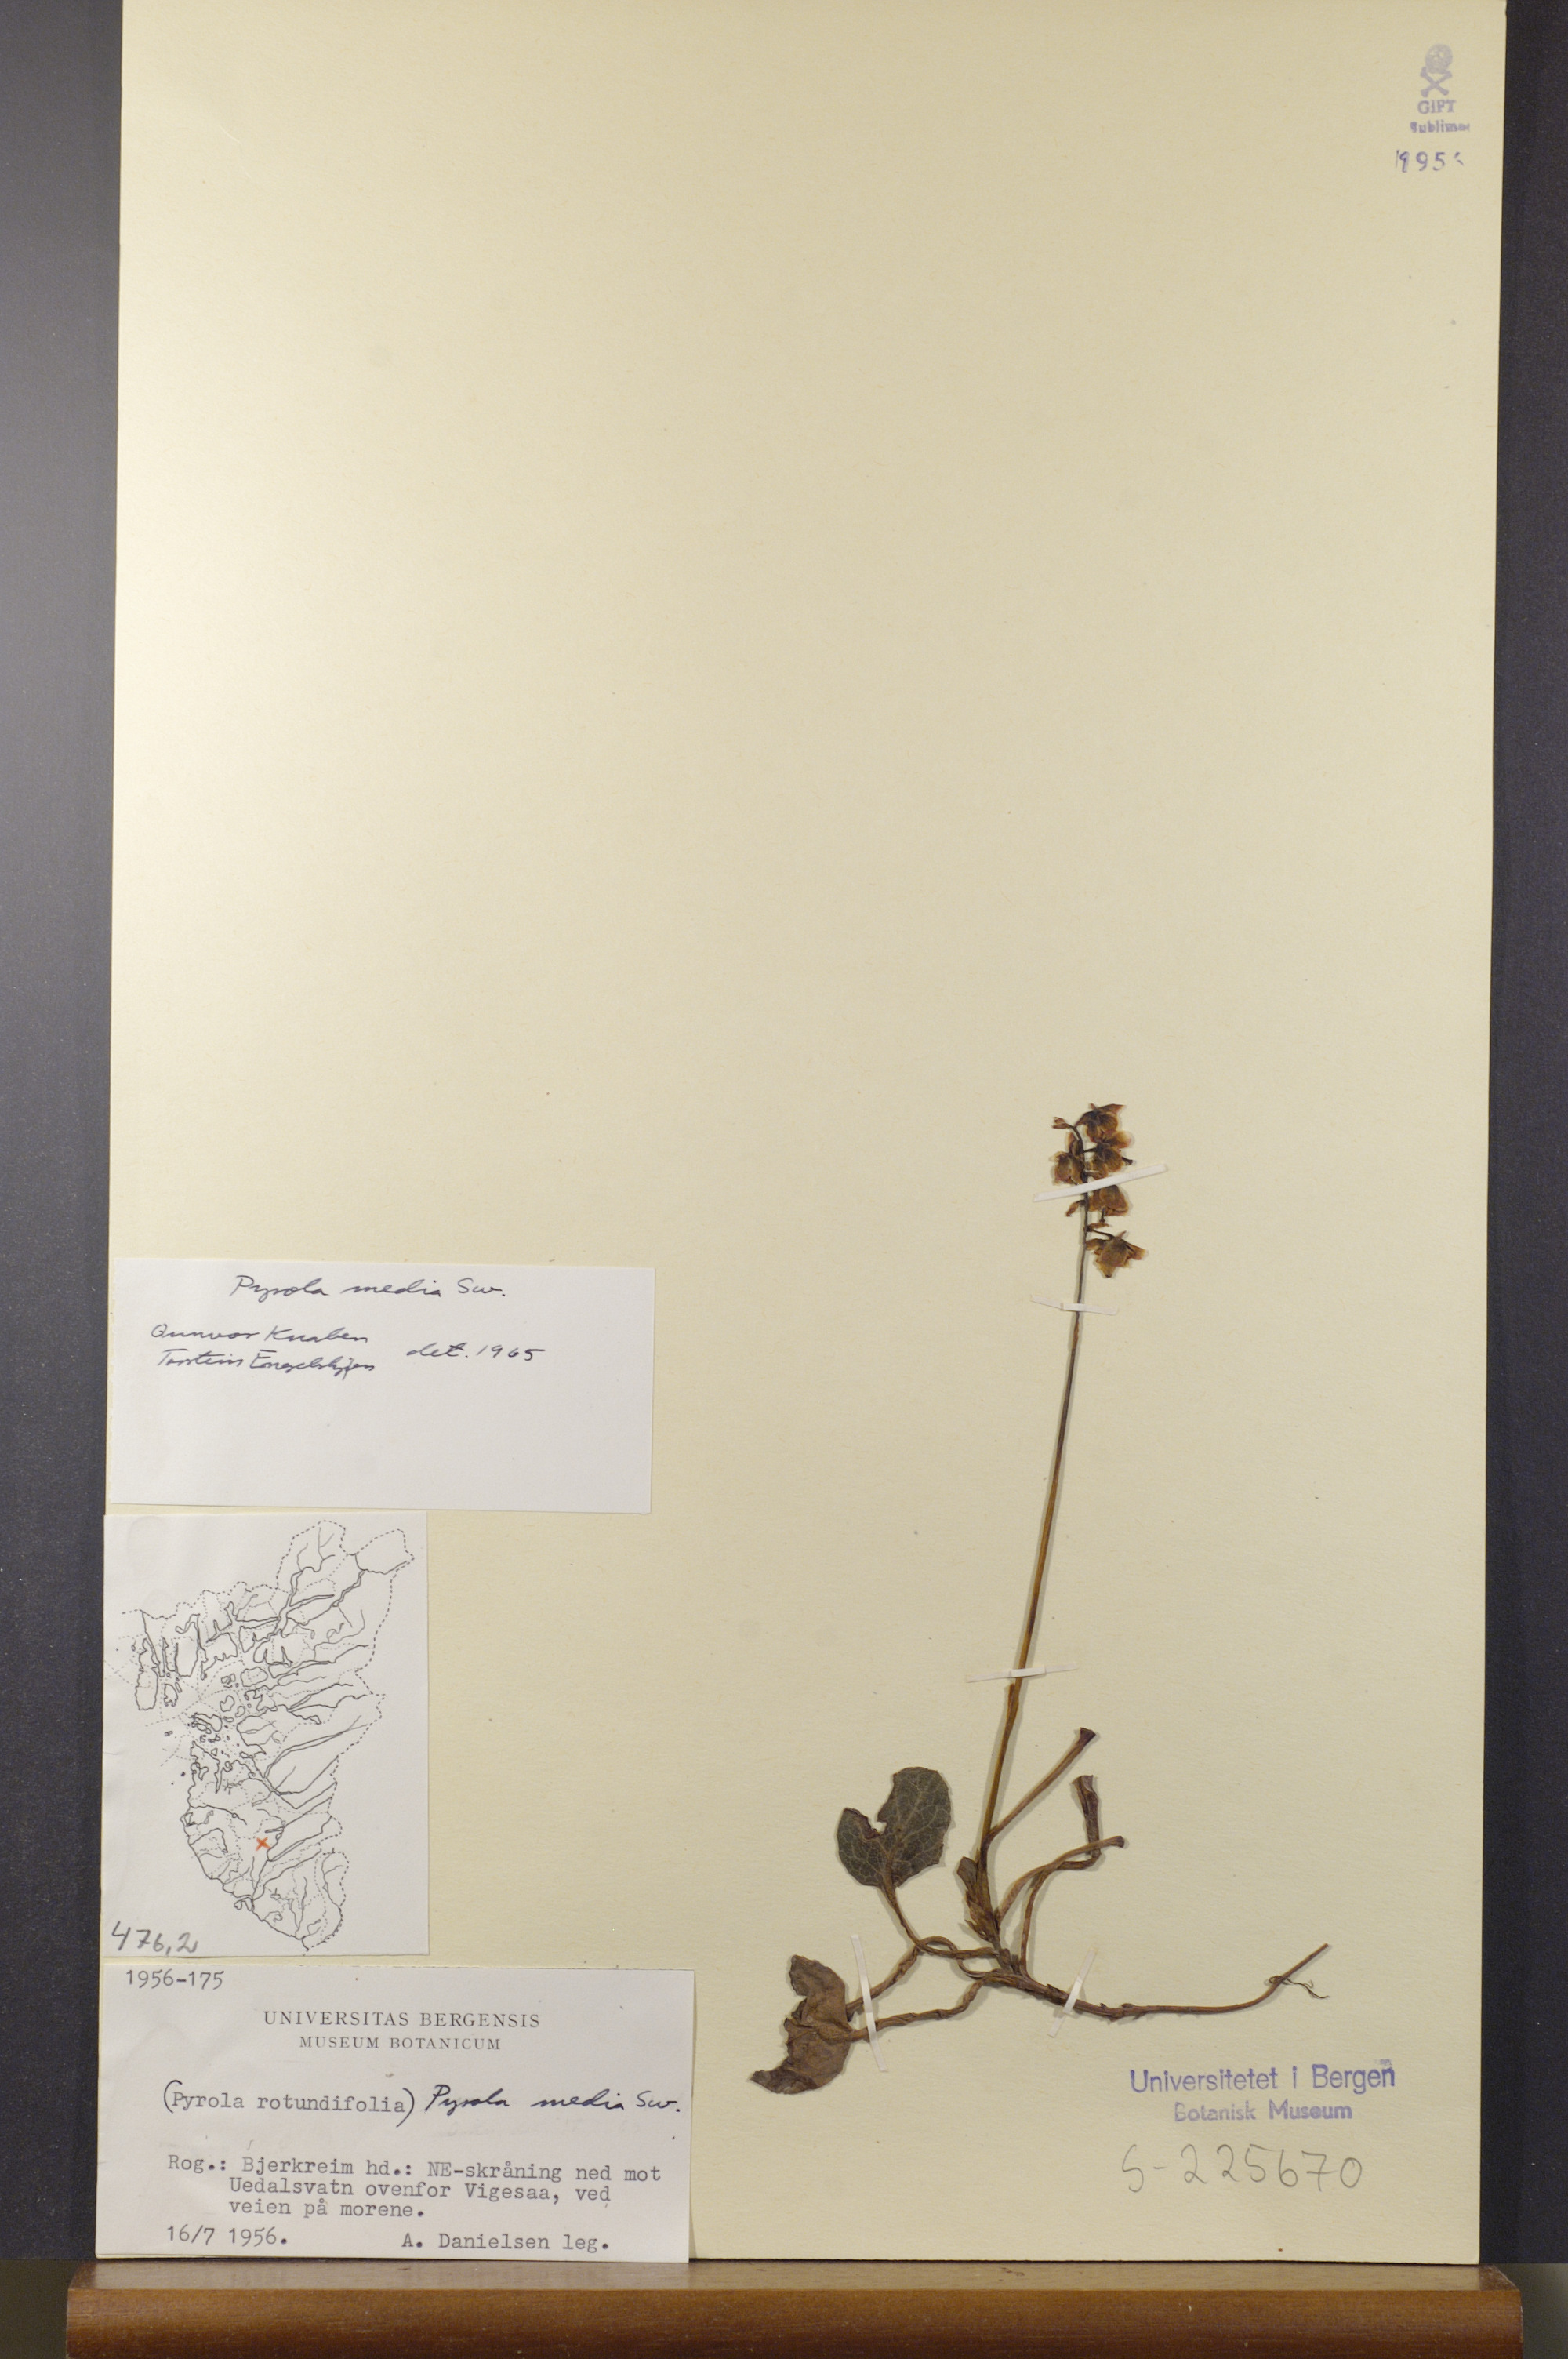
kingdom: Plantae
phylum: Tracheophyta
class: Magnoliopsida
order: Ericales
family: Ericaceae
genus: Pyrola
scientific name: Pyrola media
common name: Intermediate wintergreen
